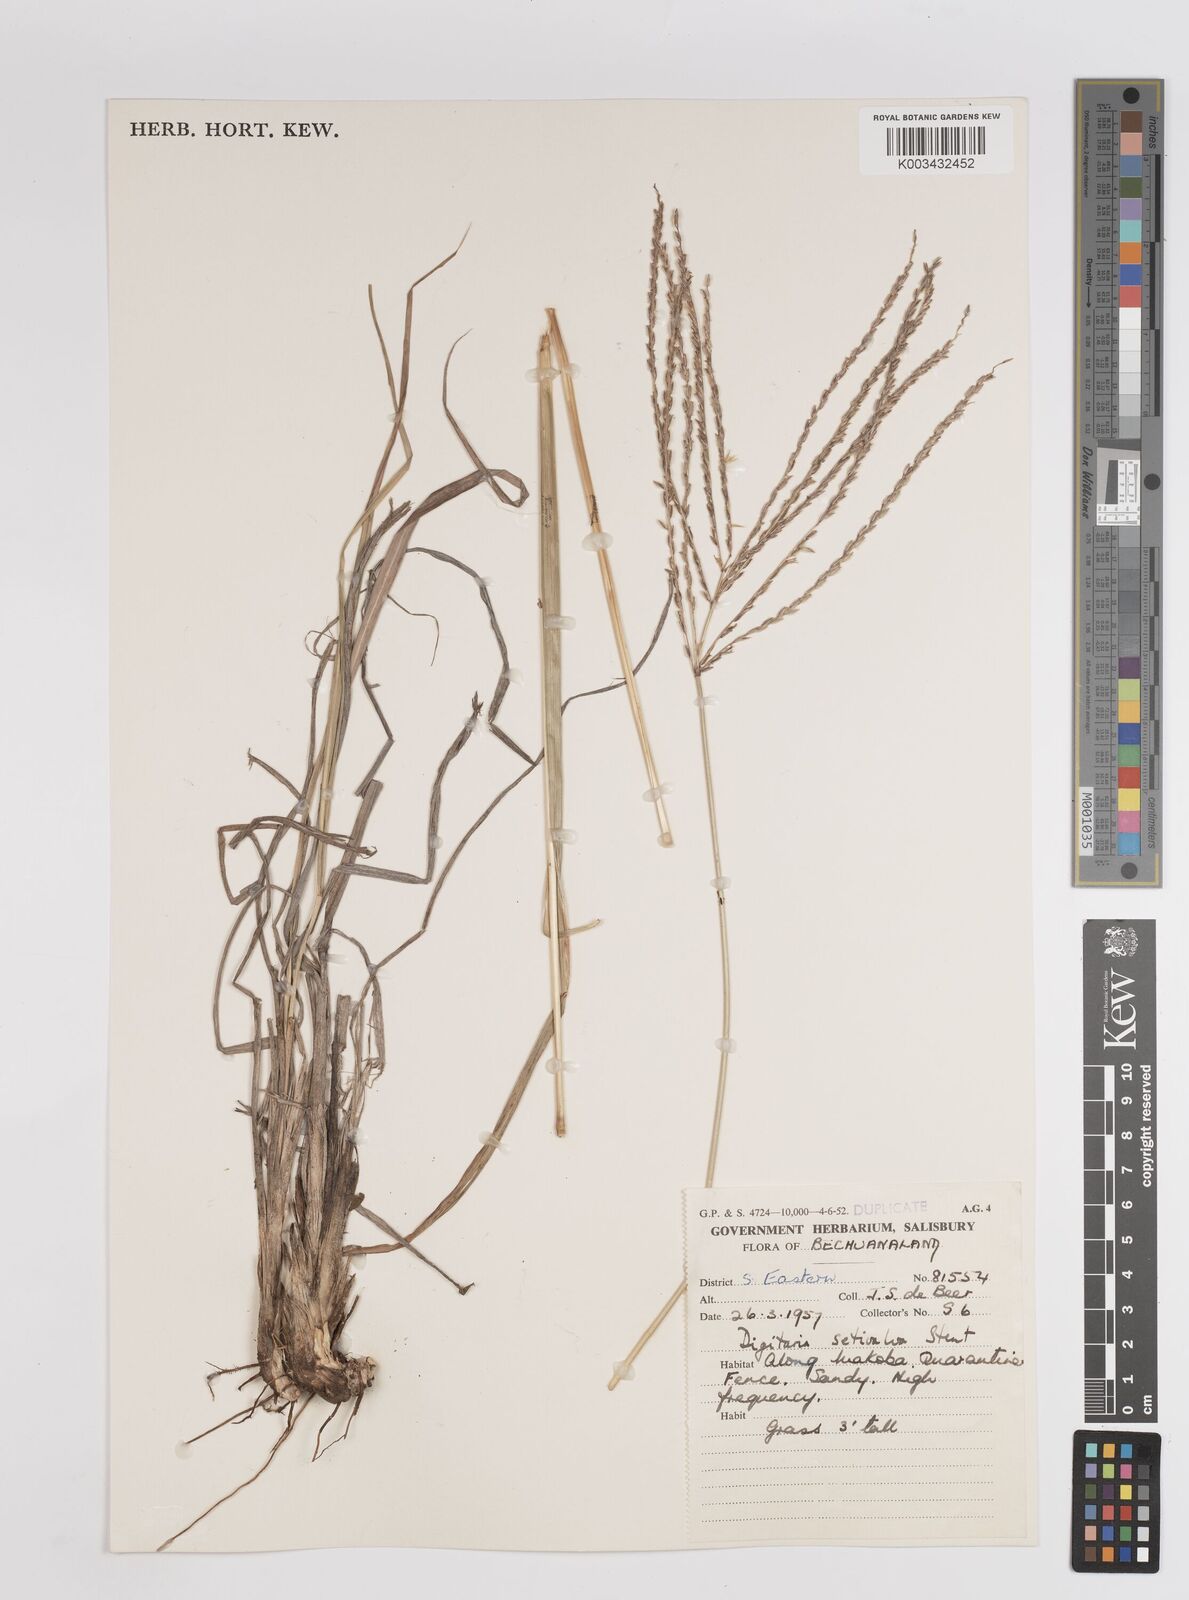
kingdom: Plantae
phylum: Tracheophyta
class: Liliopsida
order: Poales
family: Poaceae
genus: Digitaria
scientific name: Digitaria eriantha
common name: Digitgrass
